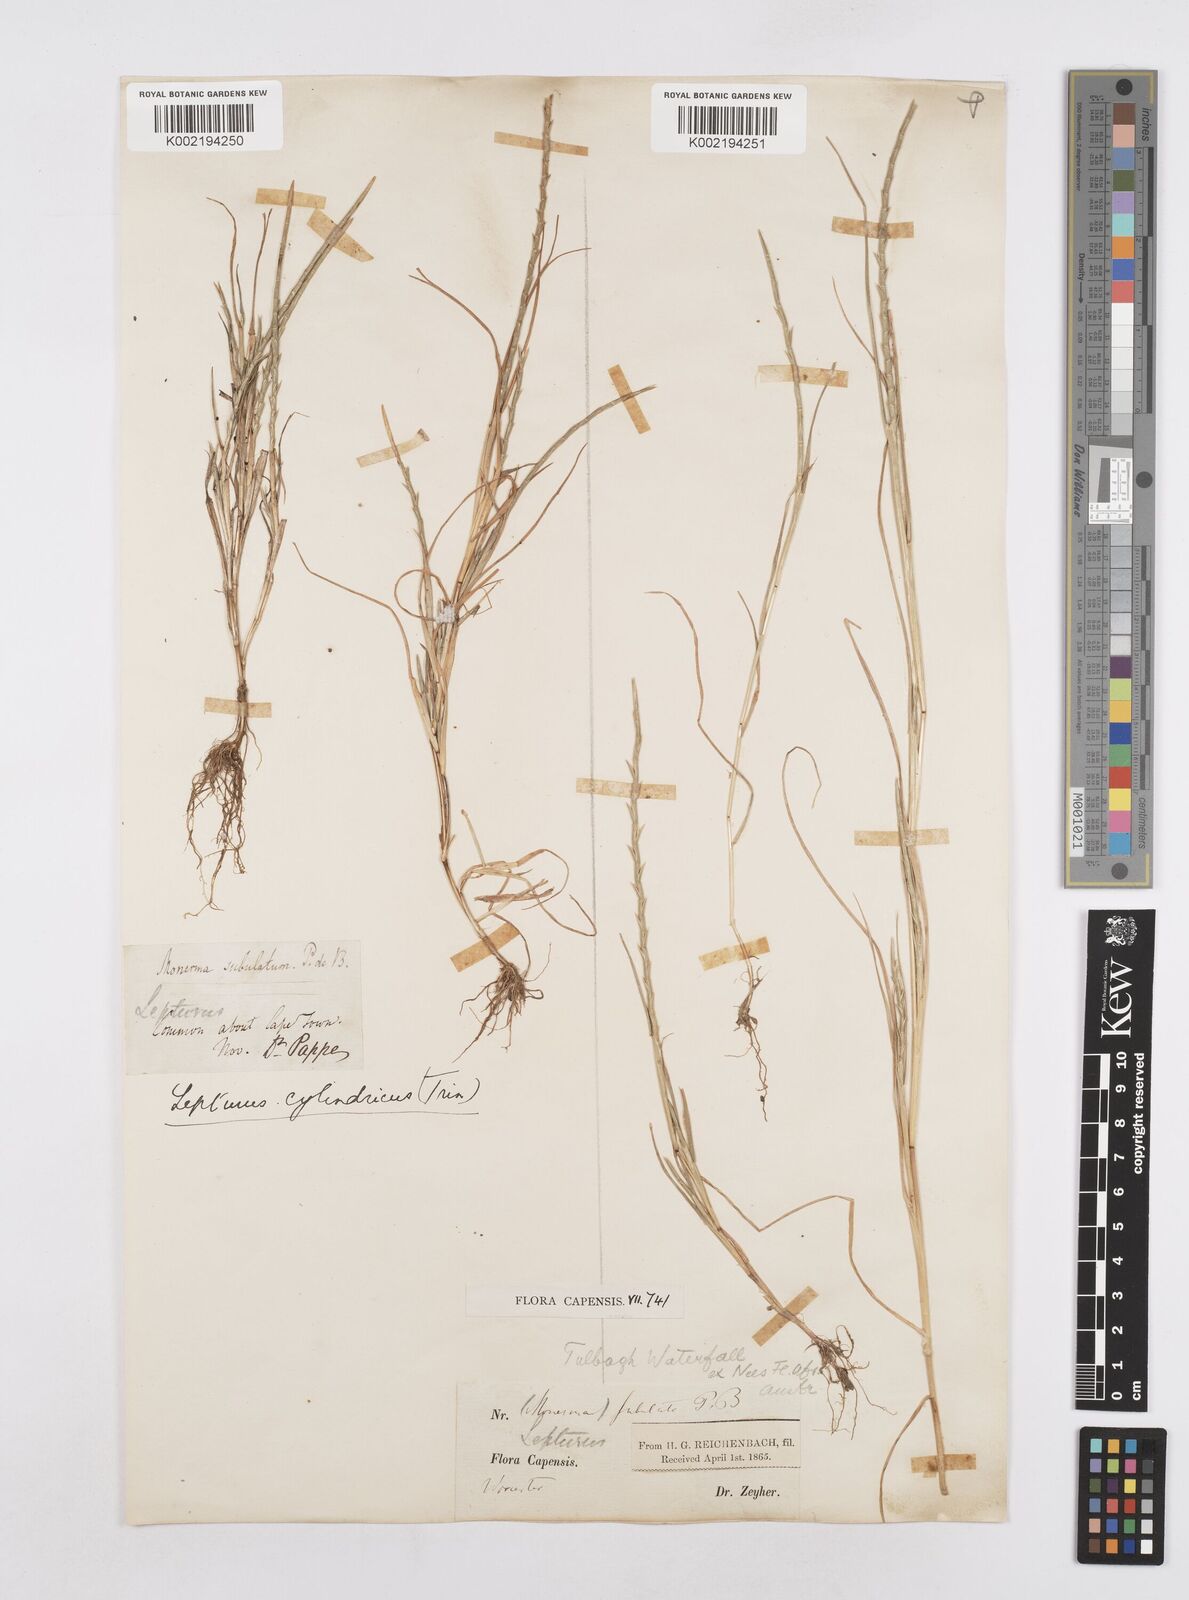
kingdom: Plantae
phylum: Tracheophyta
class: Liliopsida
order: Poales
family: Poaceae
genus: Parapholis
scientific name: Parapholis cylindrica
